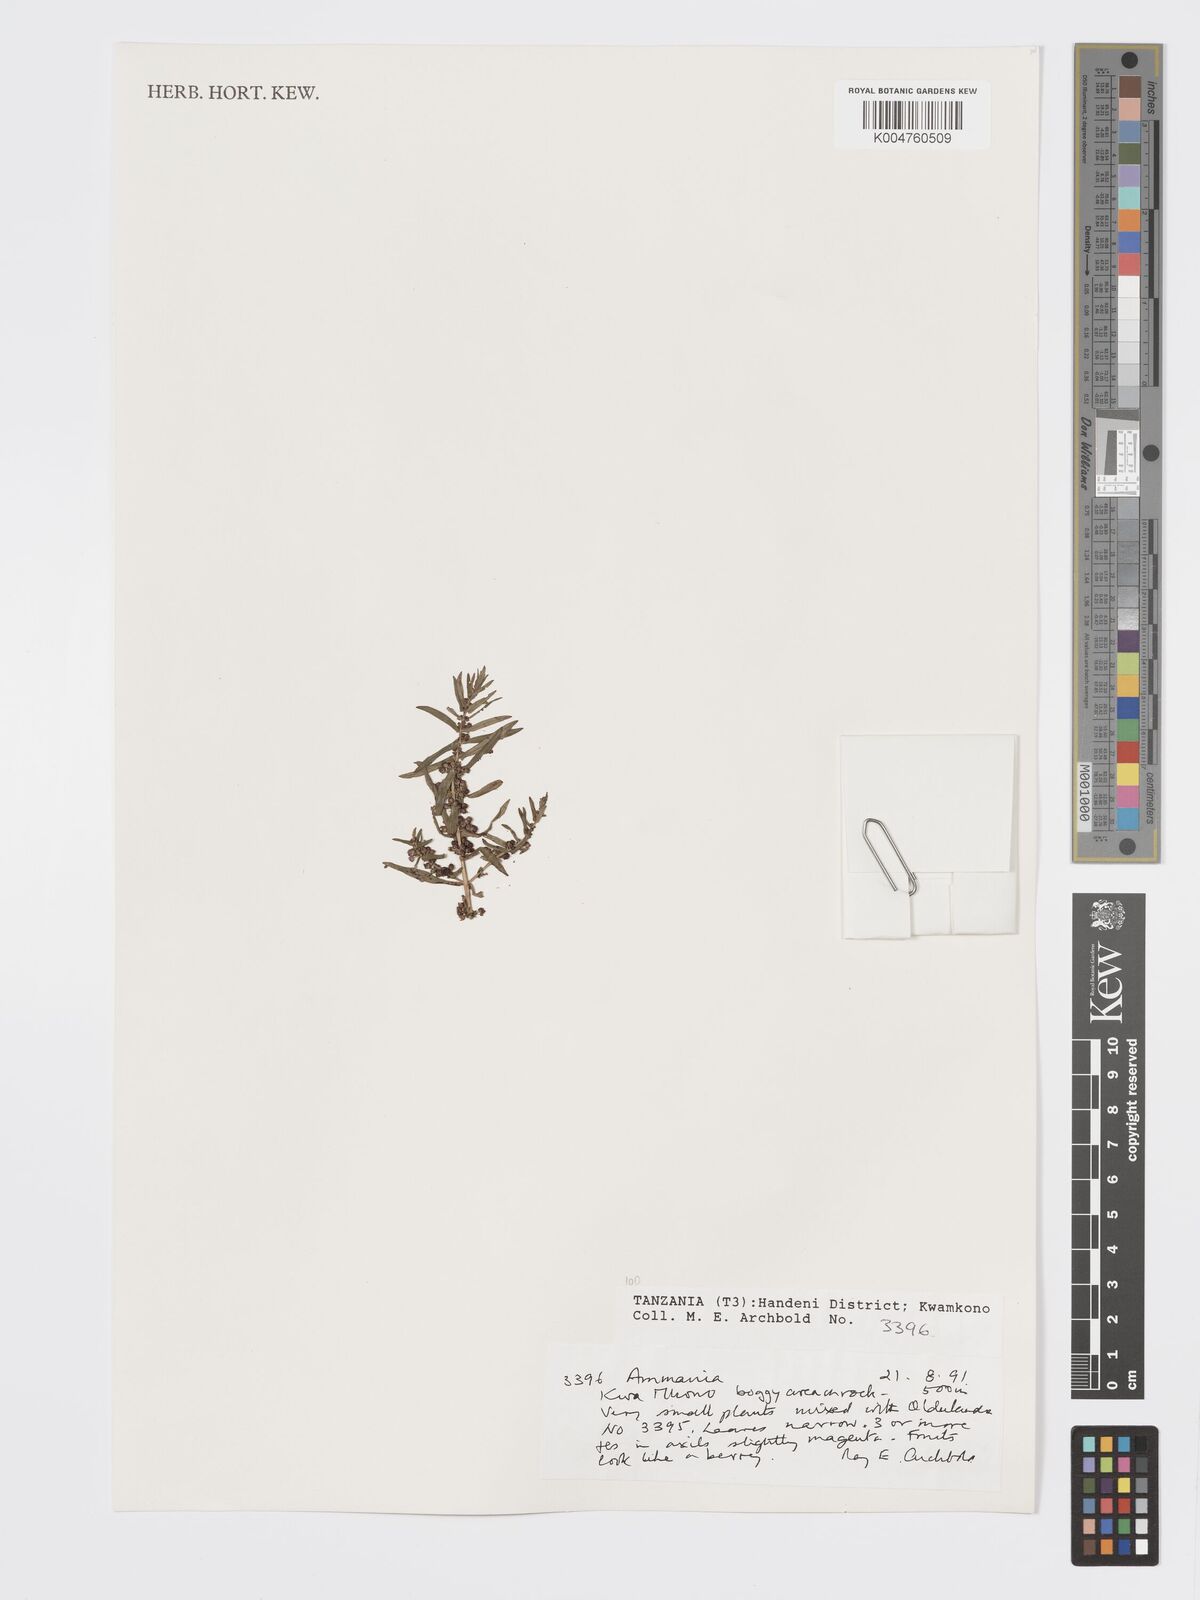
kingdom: Plantae
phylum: Tracheophyta
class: Magnoliopsida
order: Myrtales
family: Lythraceae
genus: Ammannia
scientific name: Ammannia
